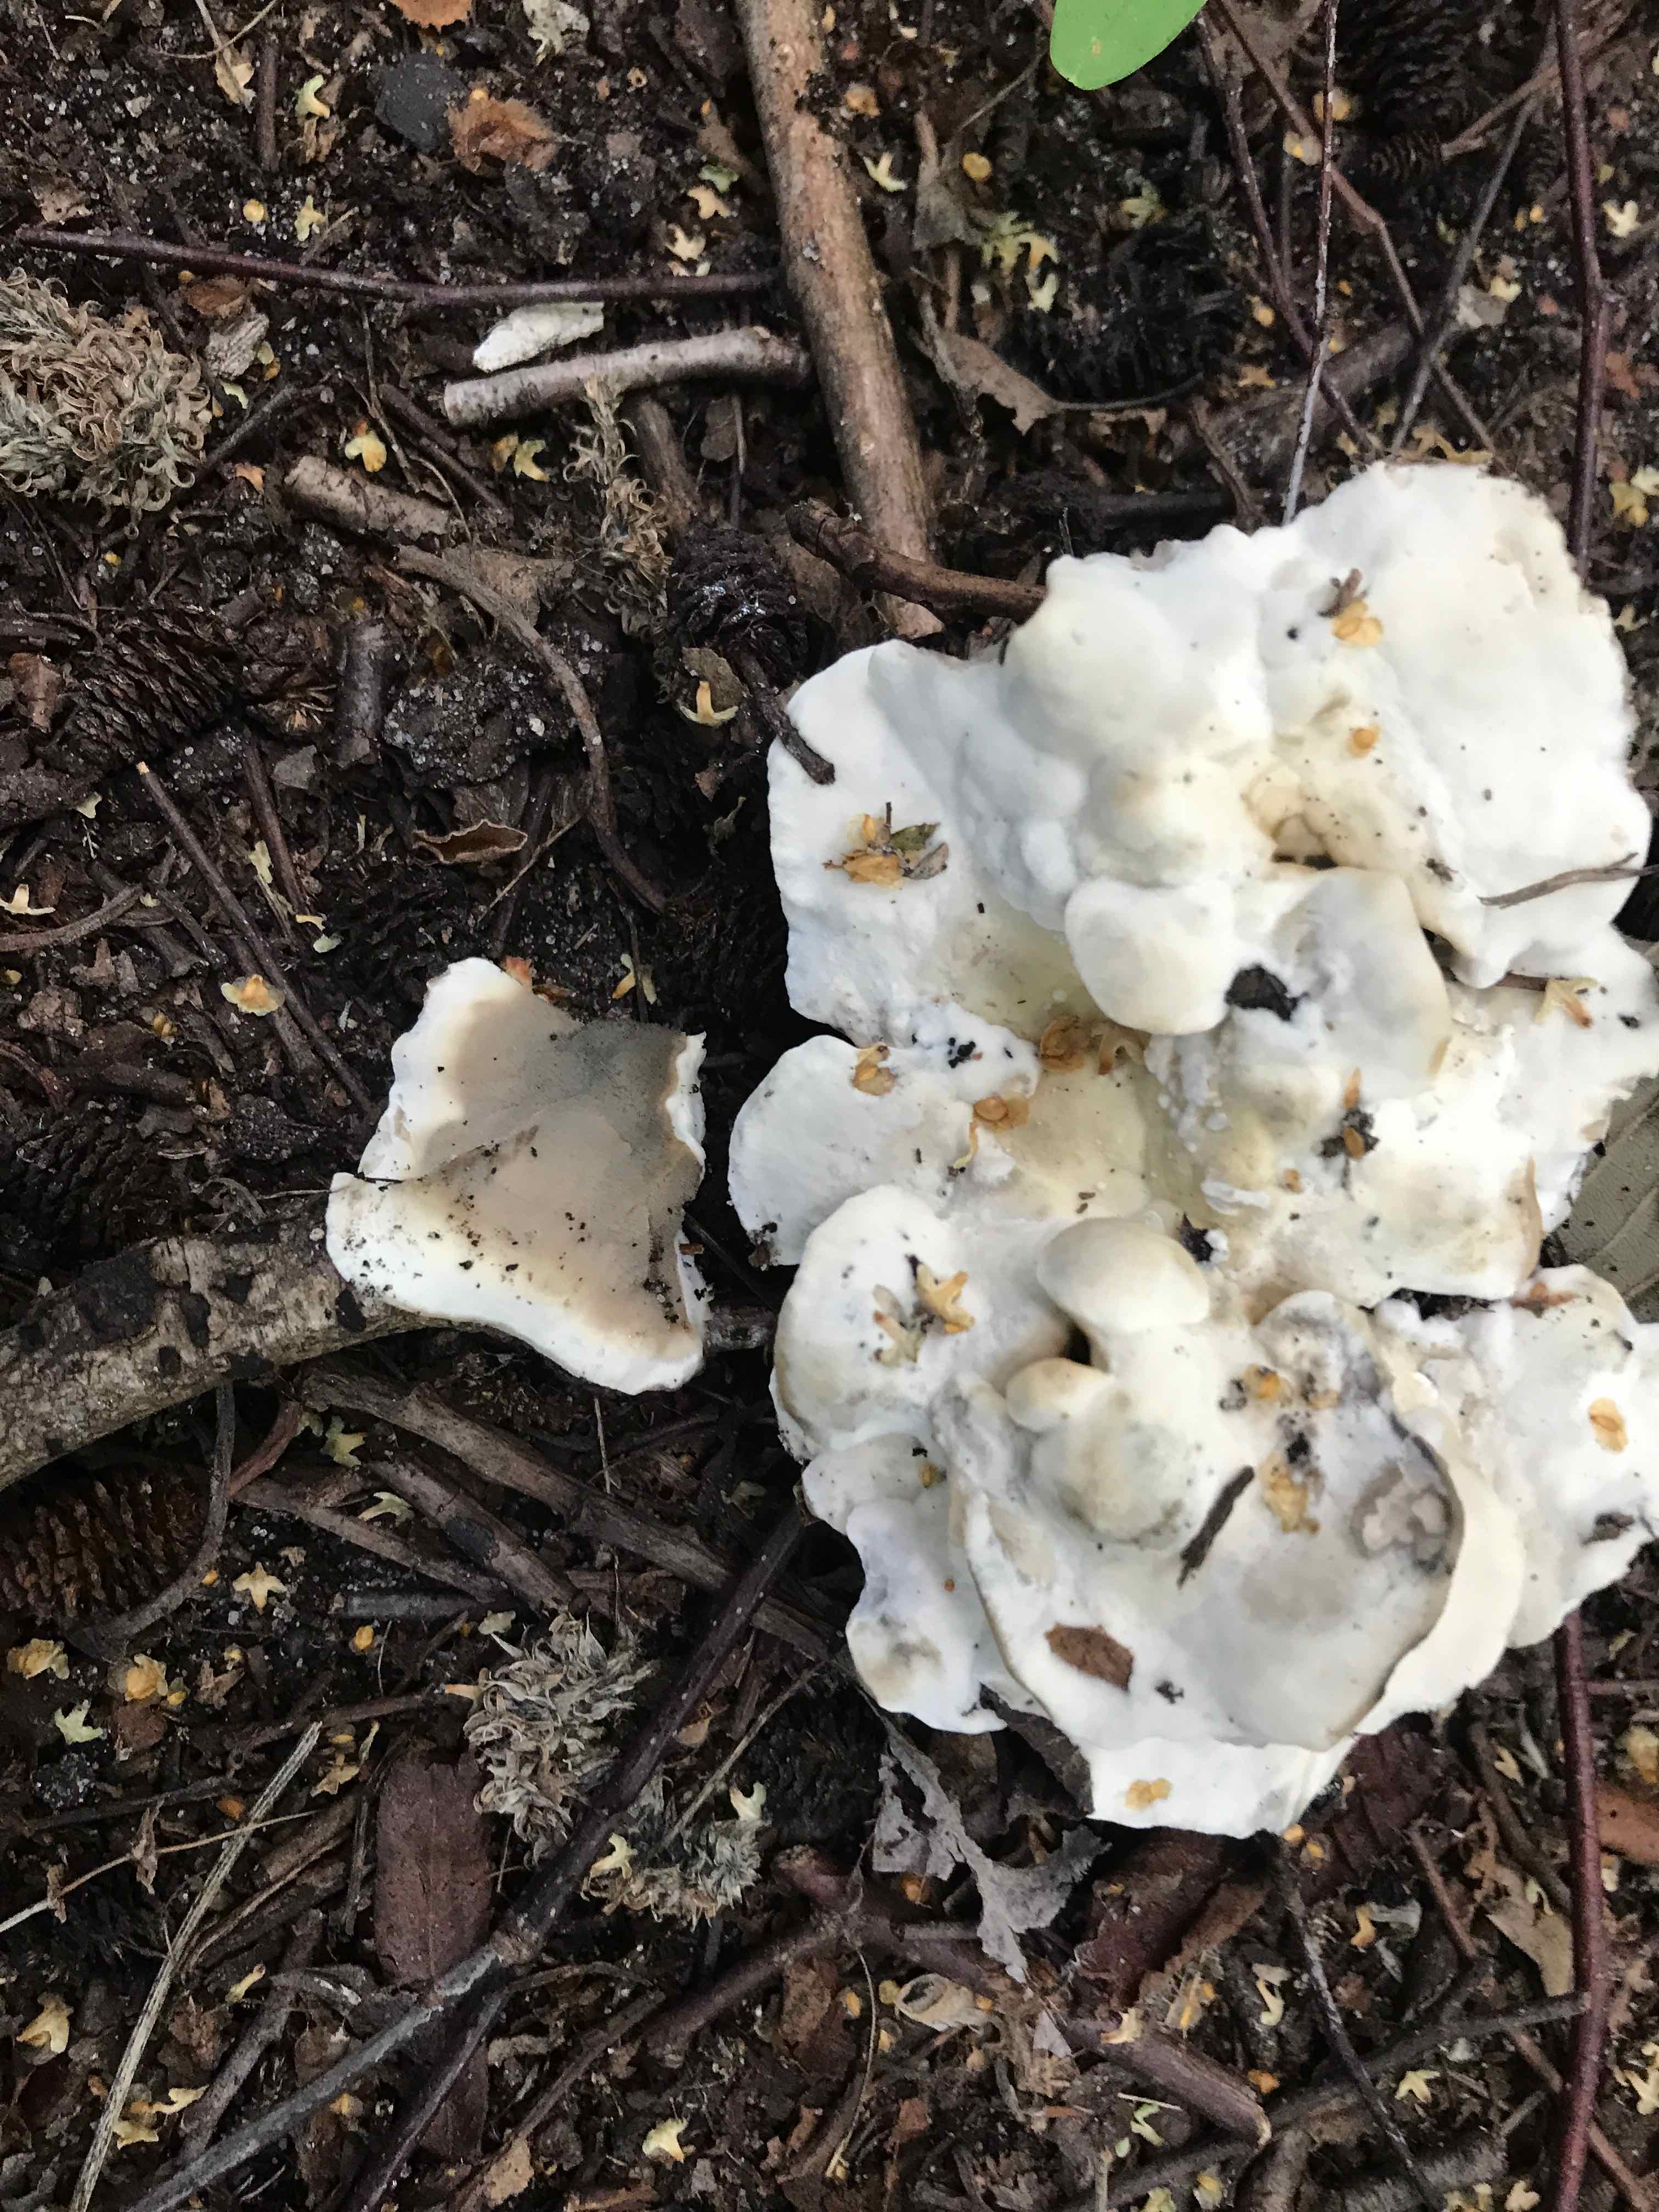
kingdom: Fungi
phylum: Basidiomycota
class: Agaricomycetes
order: Polyporales
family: Phanerochaetaceae
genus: Bjerkandera
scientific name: Bjerkandera adusta
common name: sveden sodporesvamp
